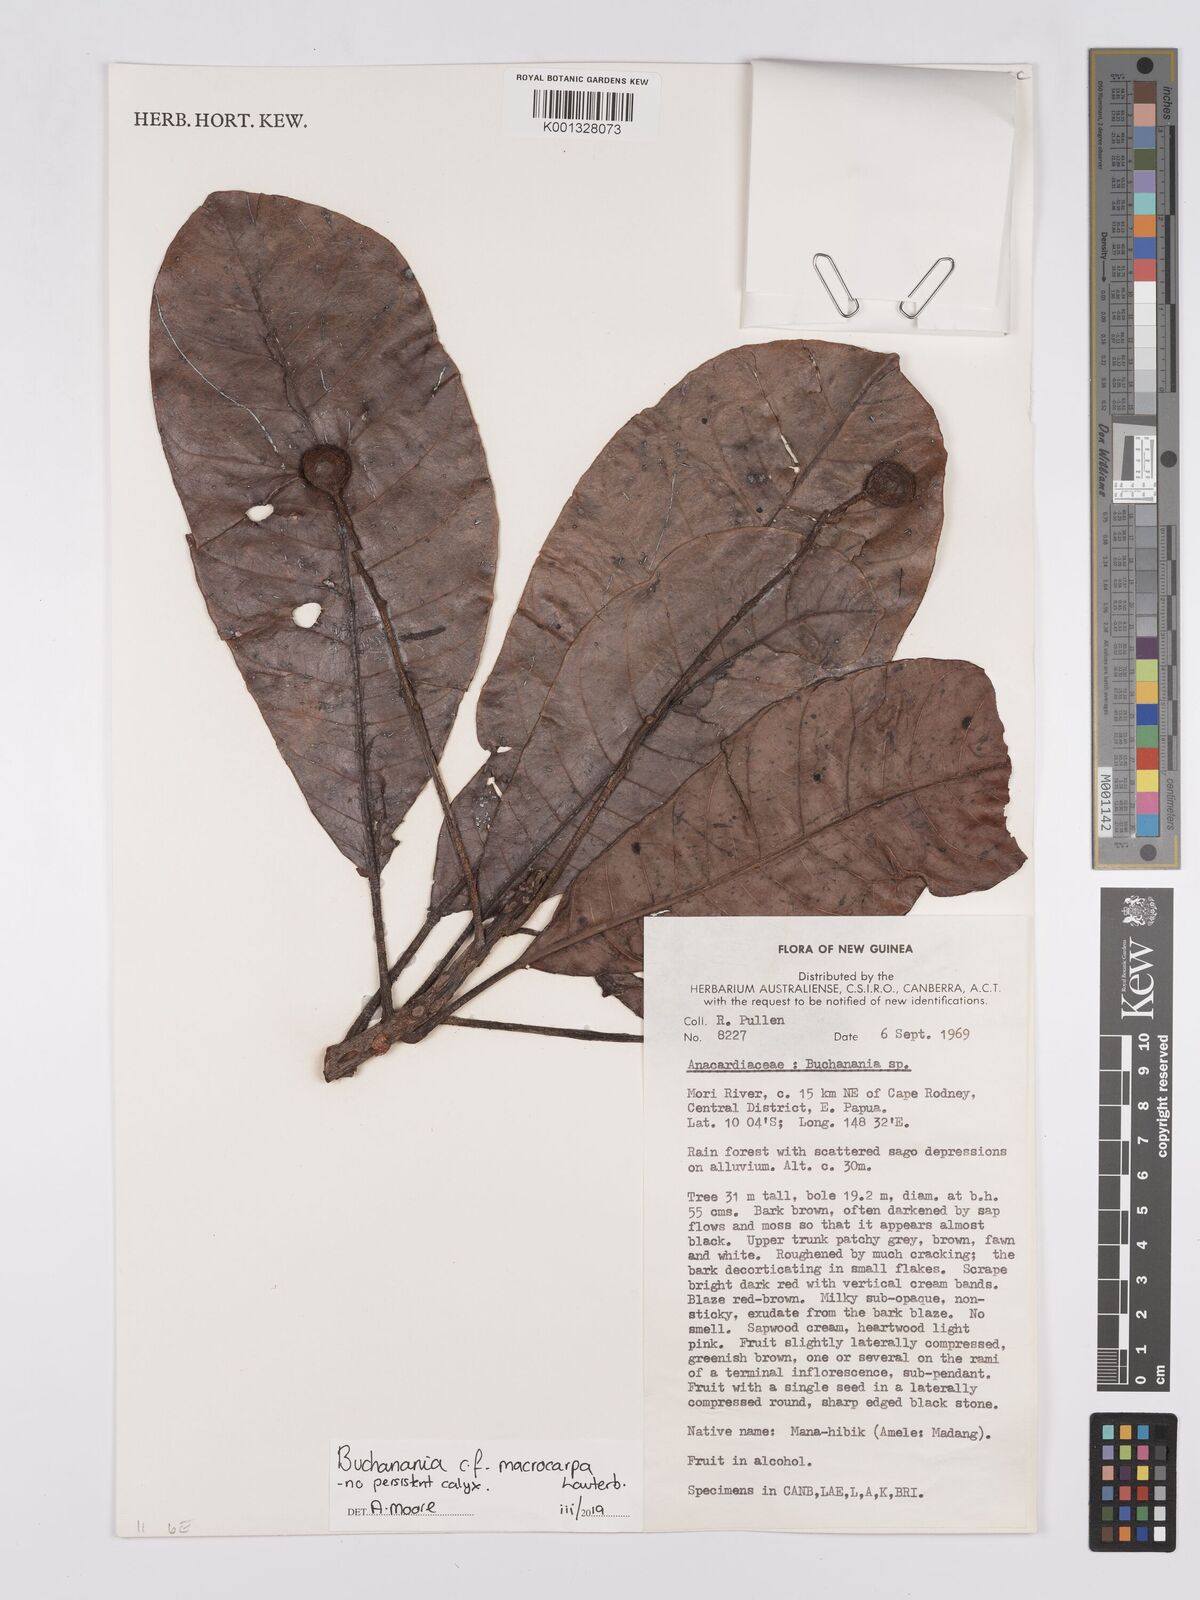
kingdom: Plantae
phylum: Tracheophyta
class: Magnoliopsida
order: Sapindales
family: Anacardiaceae
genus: Buchanania
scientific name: Buchanania macrocarpa
